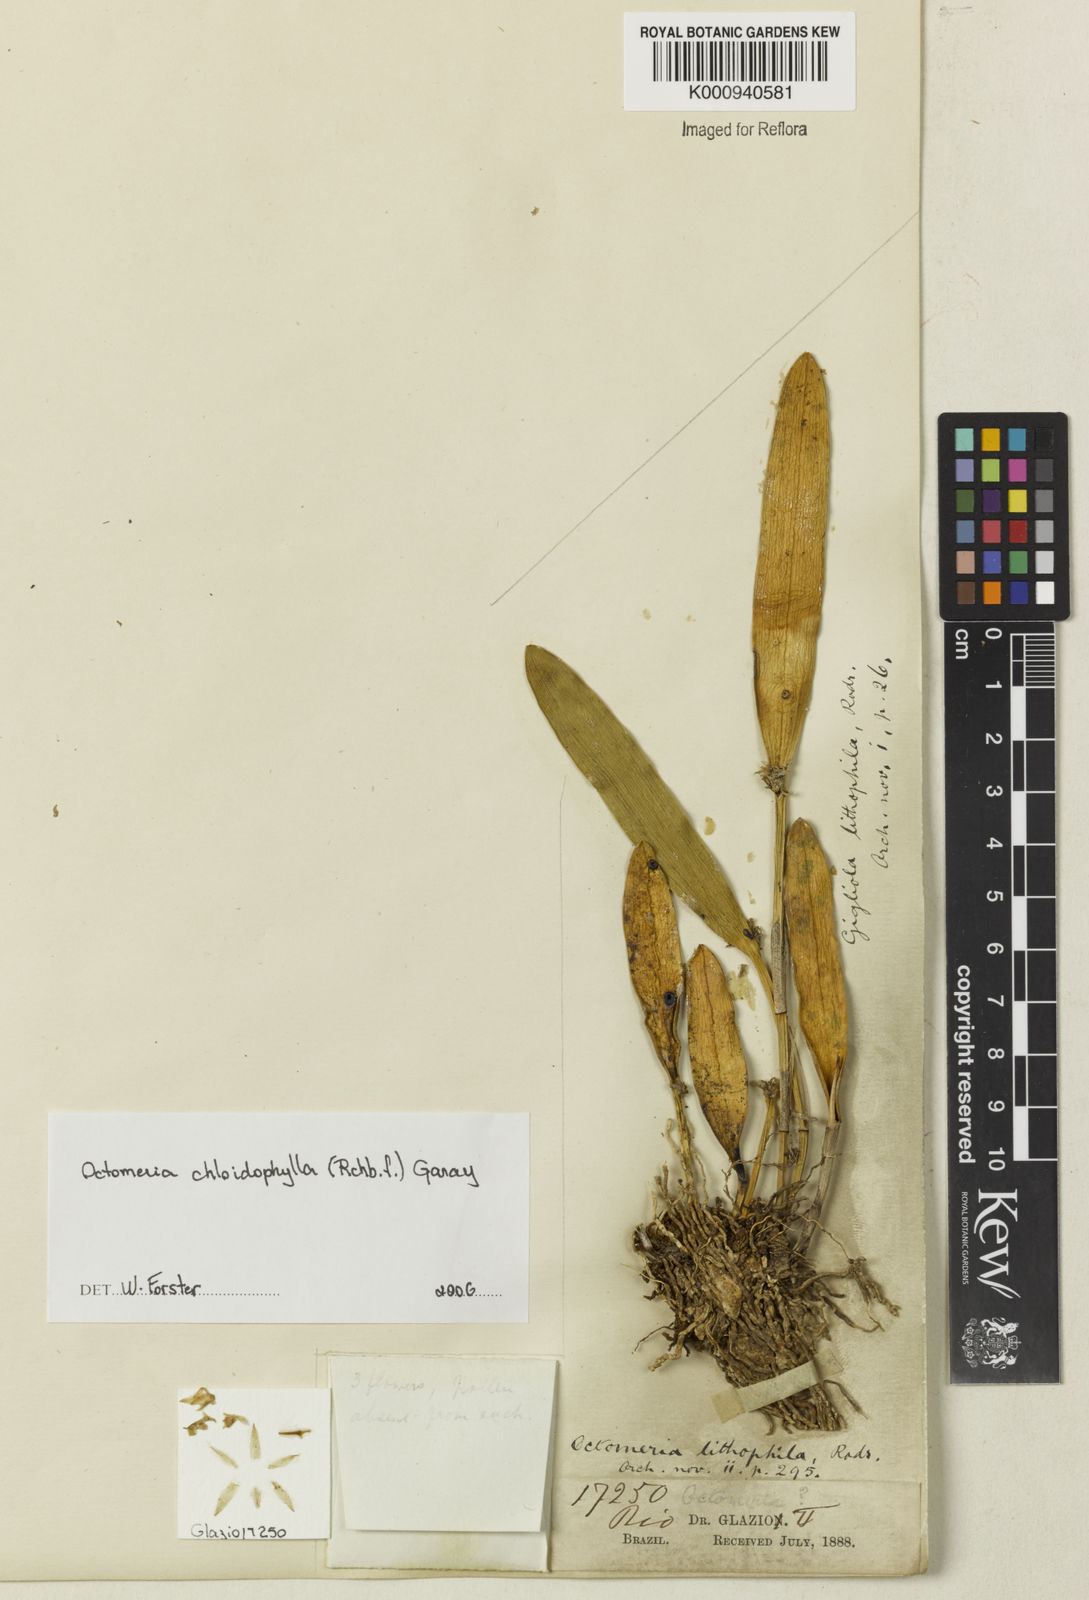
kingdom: Plantae
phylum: Tracheophyta
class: Liliopsida
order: Asparagales
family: Orchidaceae
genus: Octomeria
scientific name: Octomeria chloidophylla
